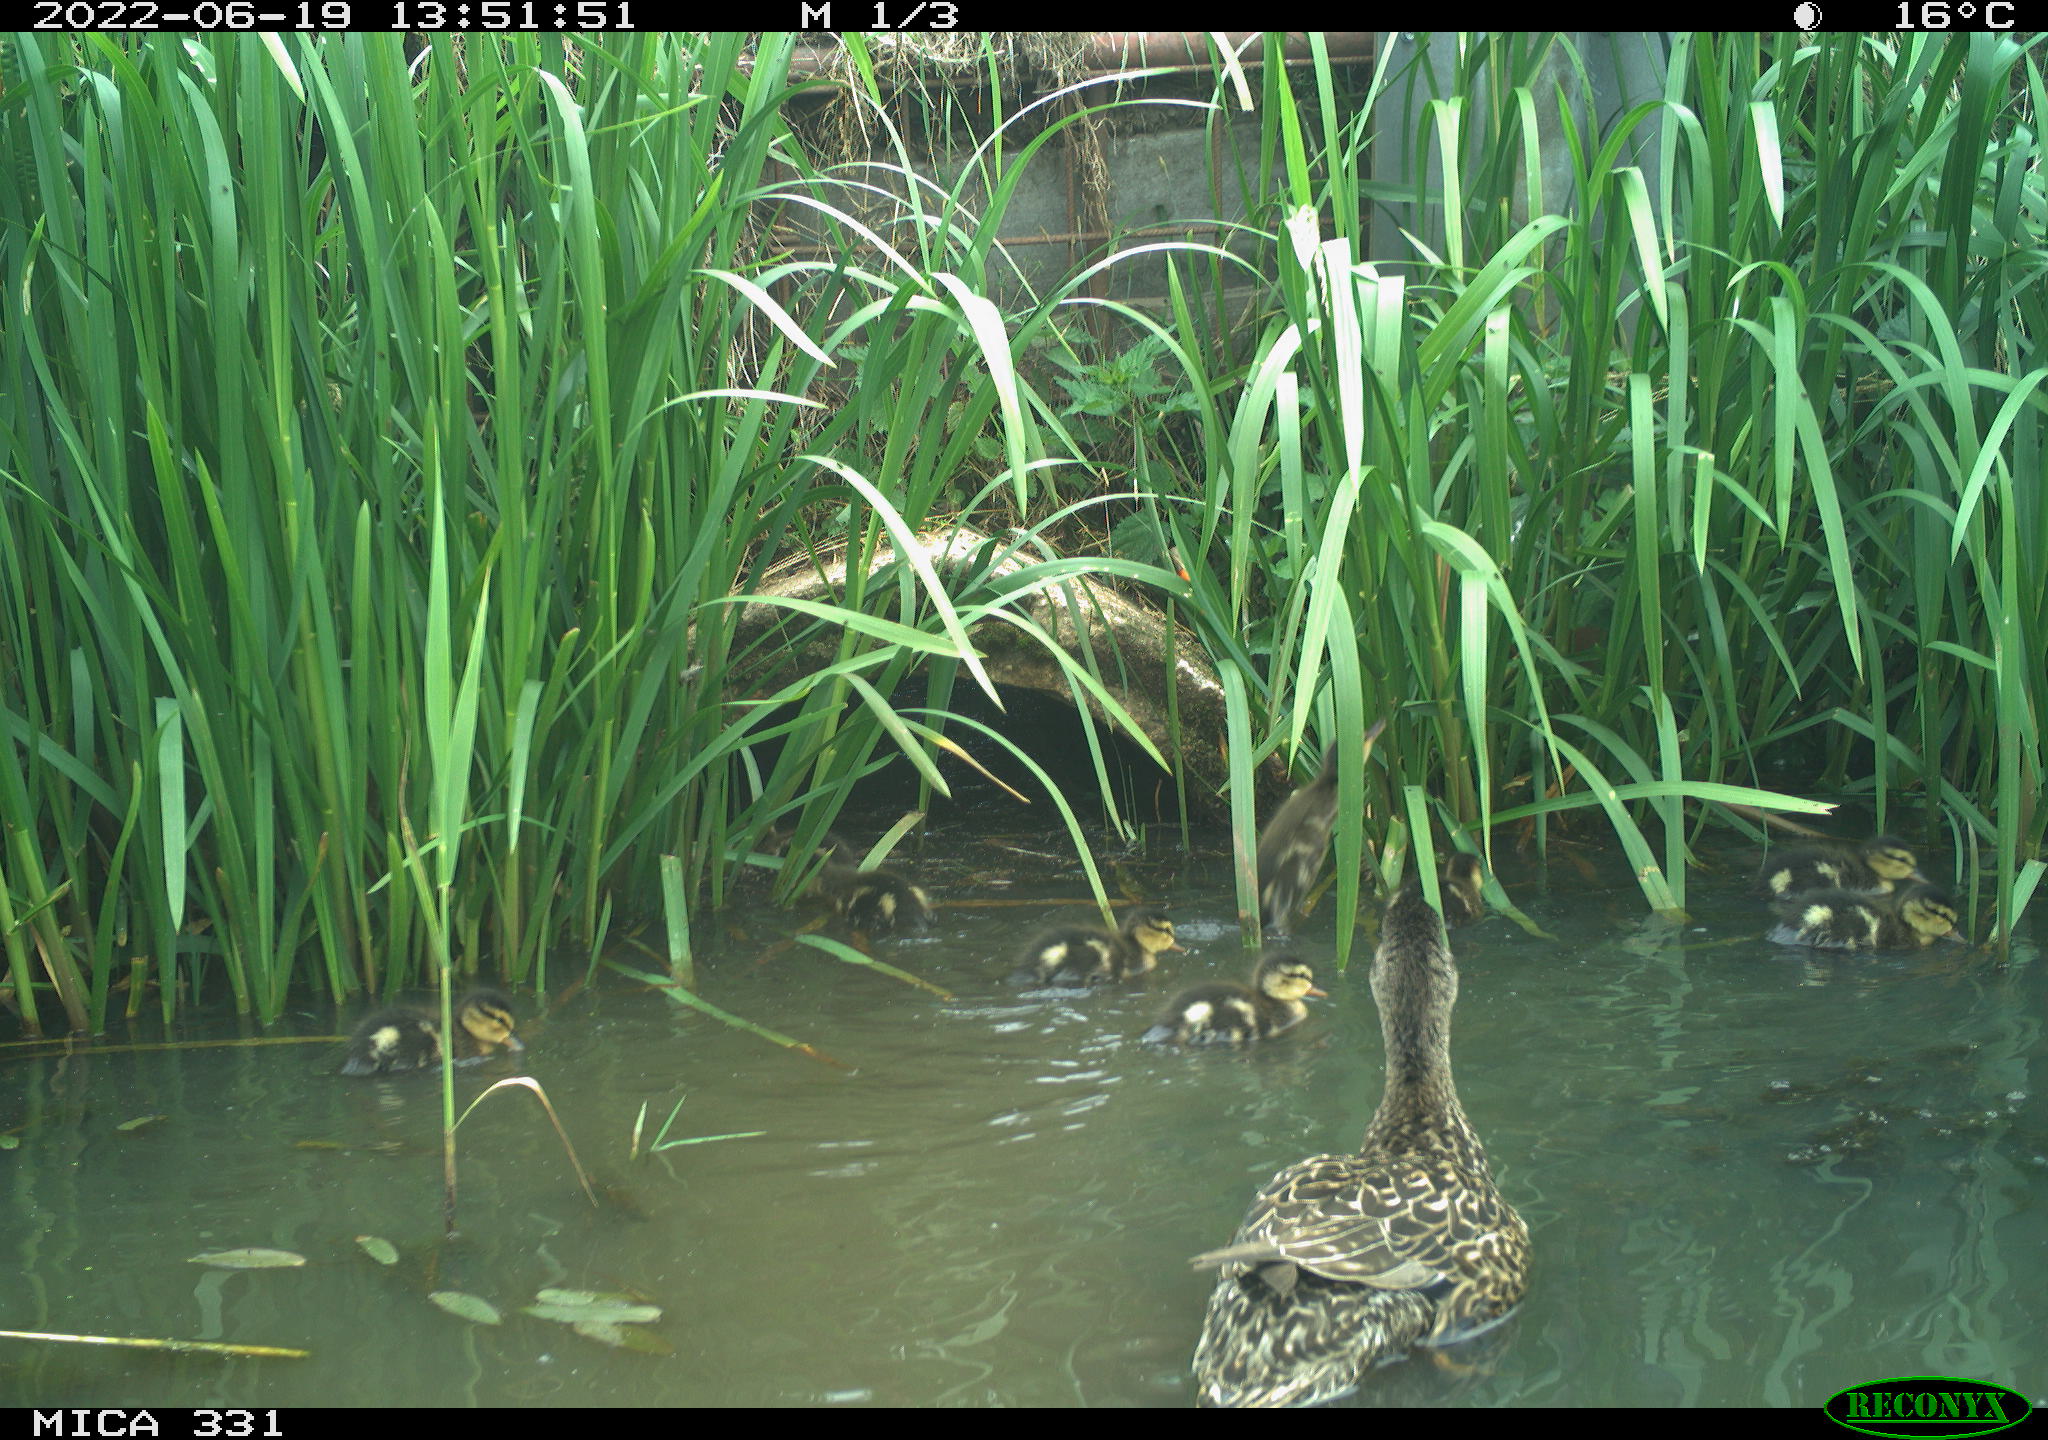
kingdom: Animalia
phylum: Chordata
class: Aves
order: Anseriformes
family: Anatidae
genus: Anas
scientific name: Anas platyrhynchos
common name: Mallard
